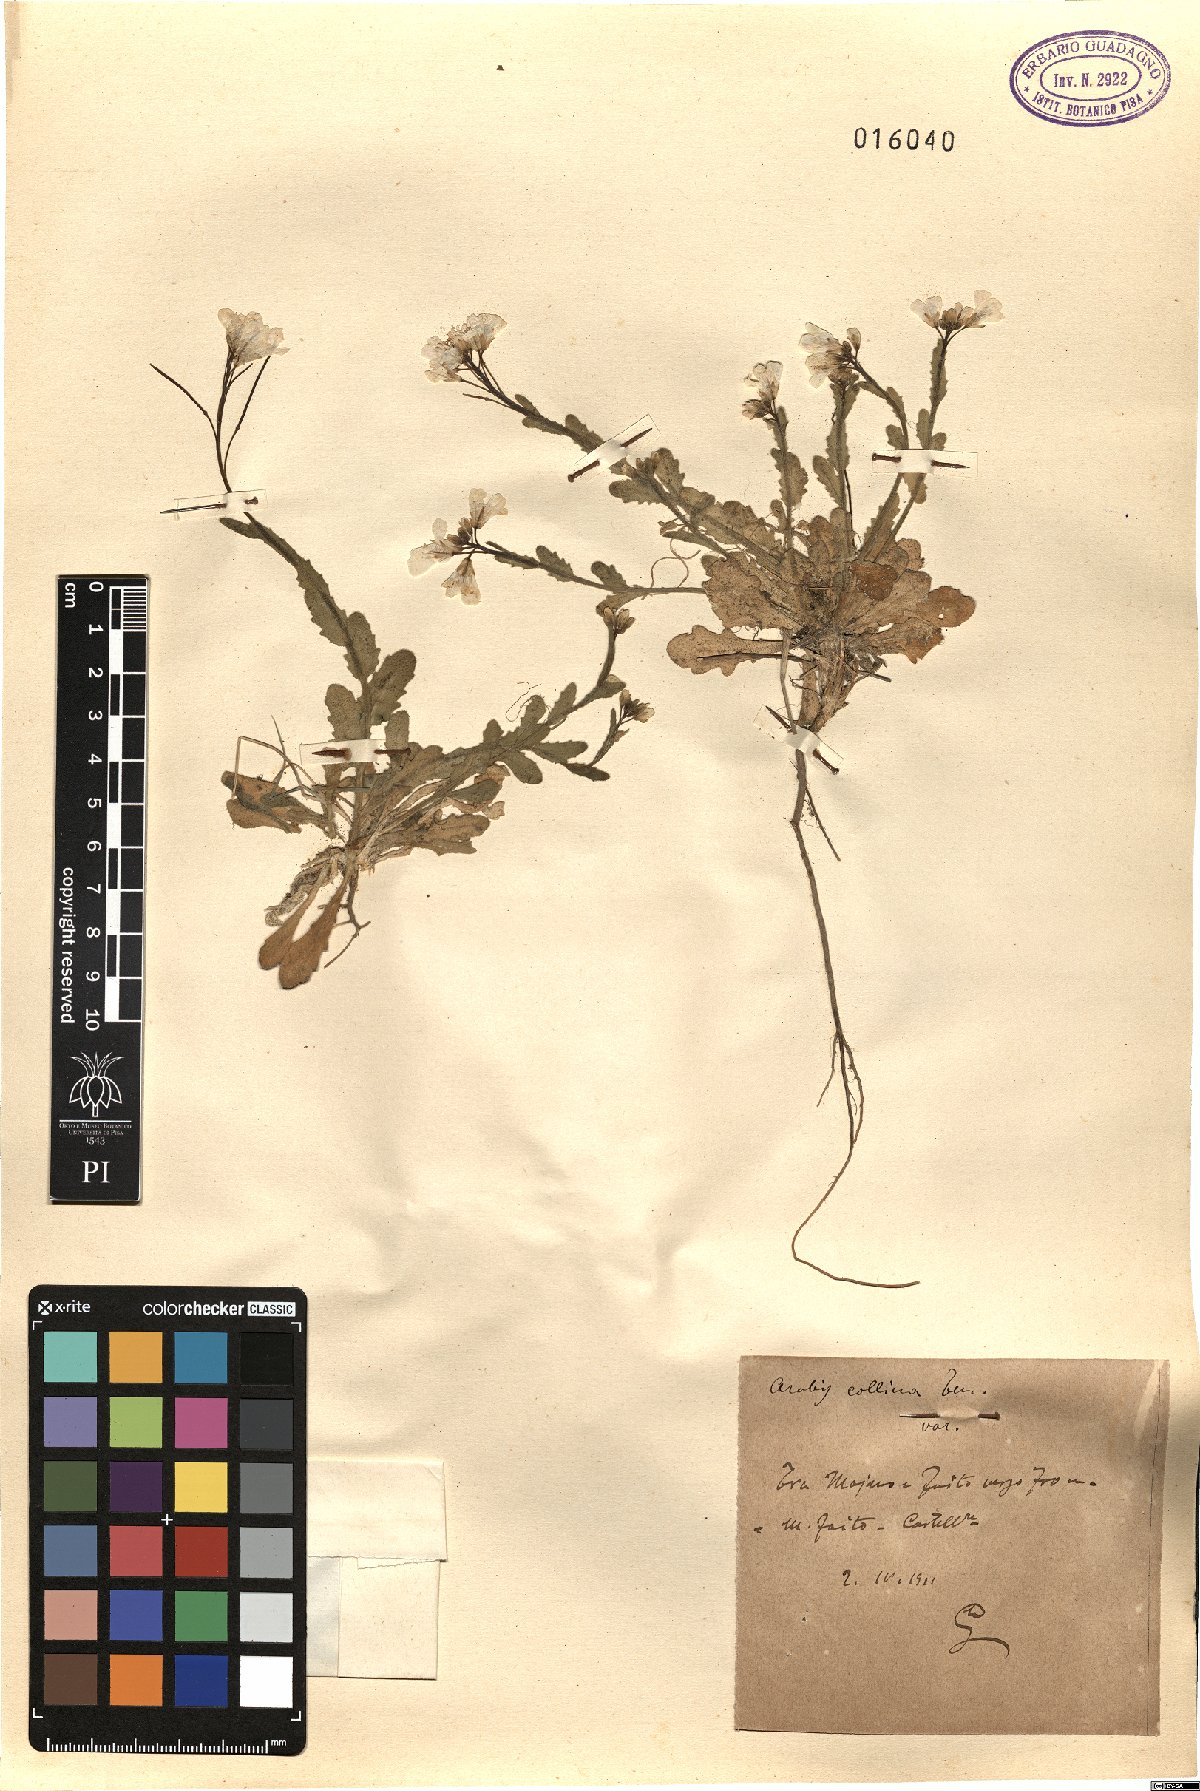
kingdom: Plantae
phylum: Tracheophyta
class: Magnoliopsida
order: Brassicales
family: Brassicaceae
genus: Arabis
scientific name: Arabis collina
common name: Rosy cress
